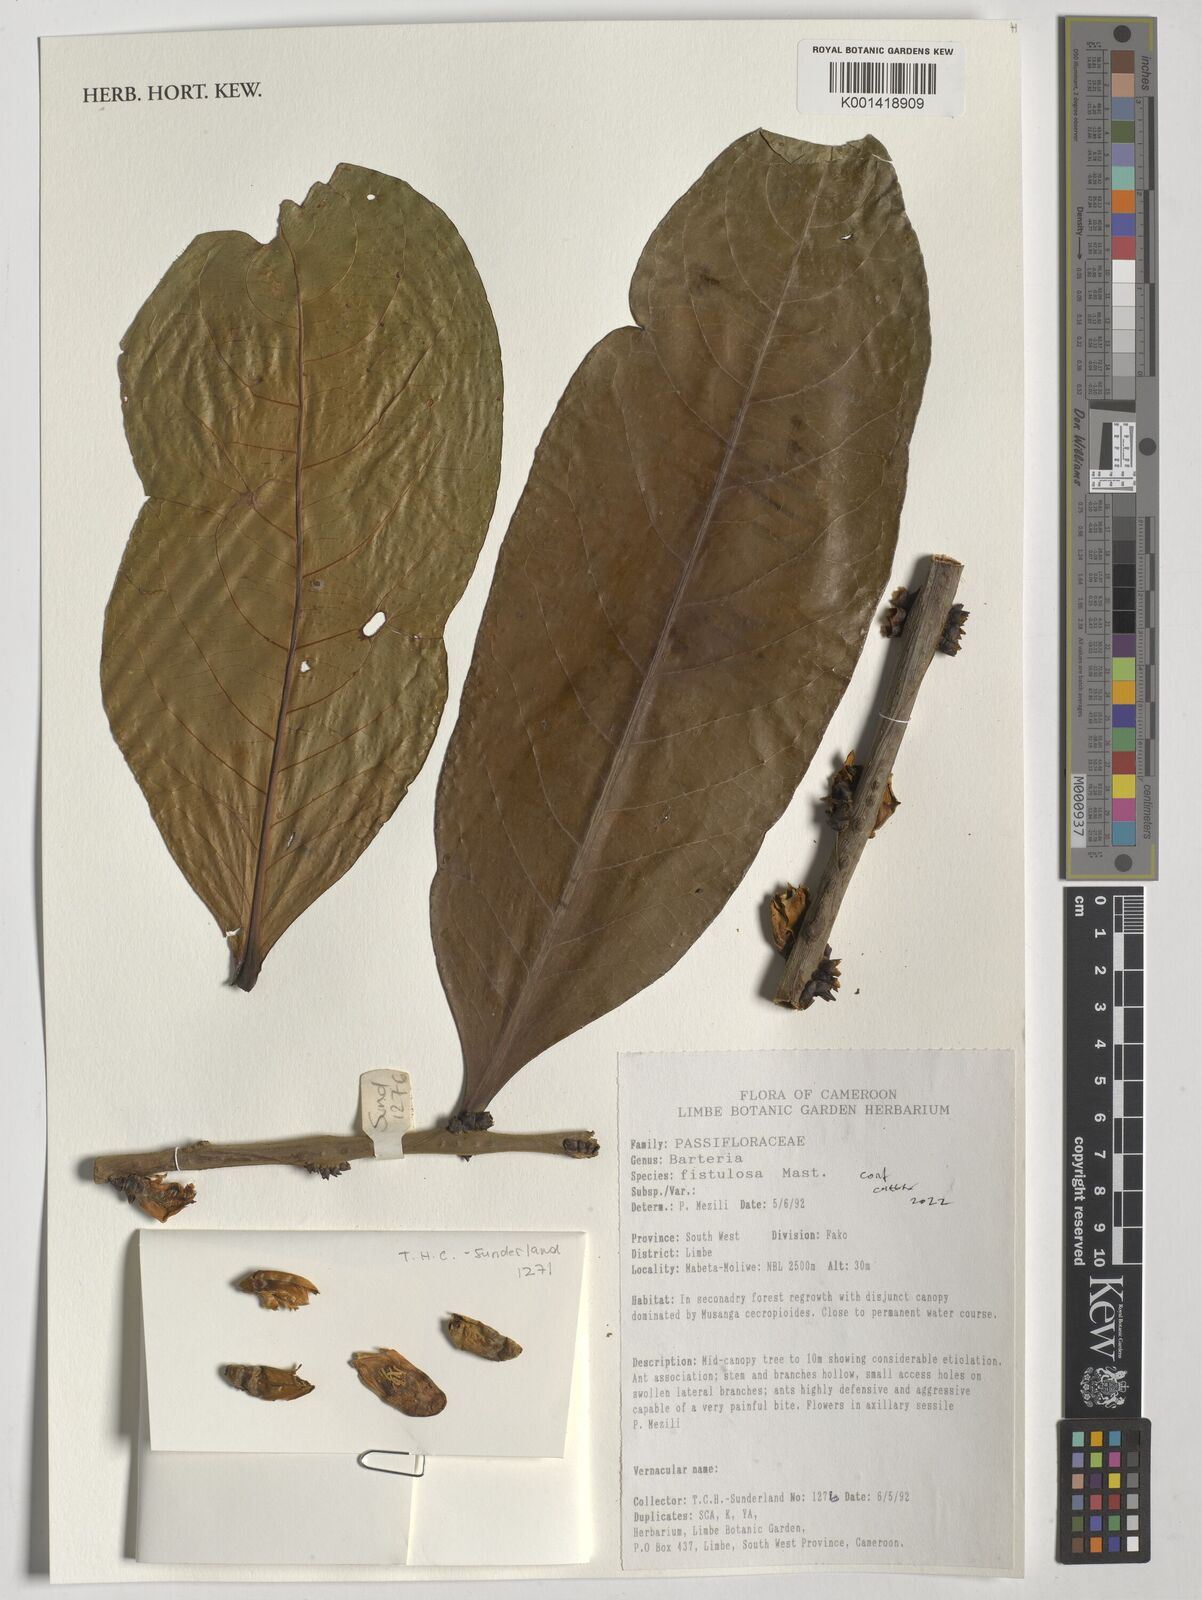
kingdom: Plantae
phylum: Tracheophyta
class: Magnoliopsida
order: Malpighiales
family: Passifloraceae
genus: Barteria
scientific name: Barteria fistulosa
